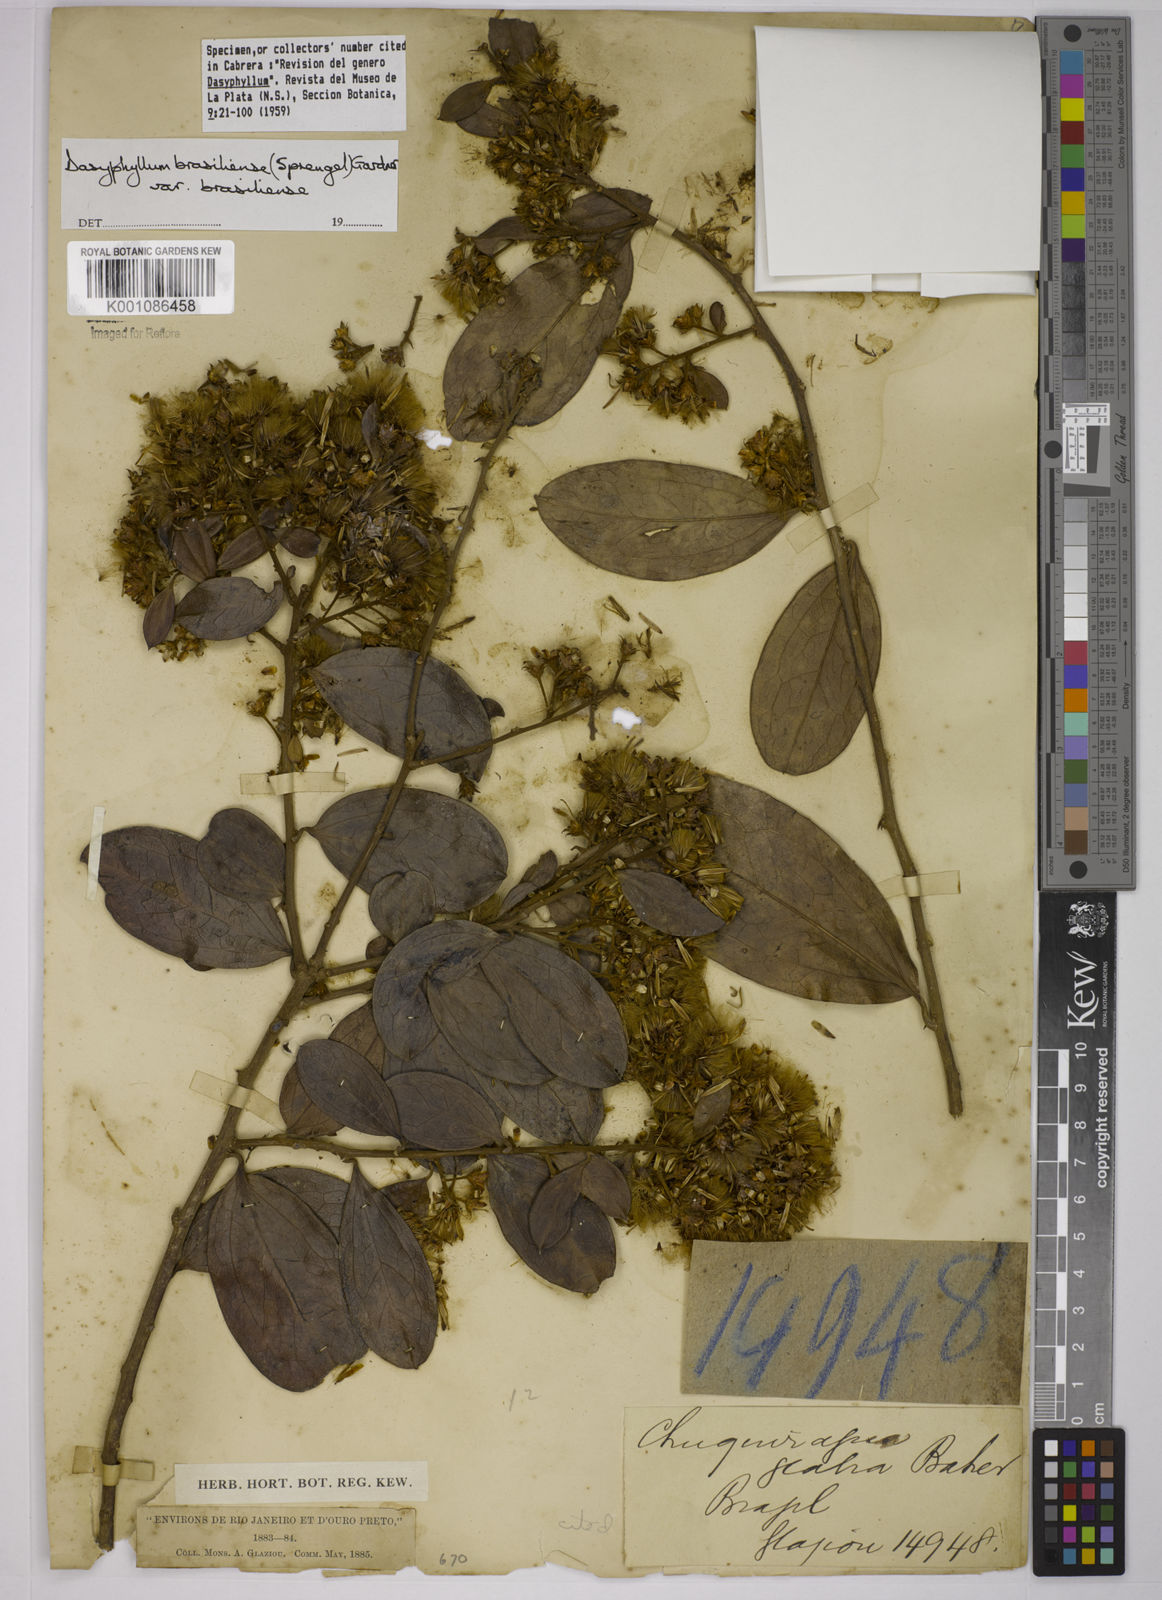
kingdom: Plantae
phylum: Tracheophyta
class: Magnoliopsida
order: Asterales
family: Asteraceae
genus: Dasyphyllum
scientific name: Dasyphyllum brasiliense
